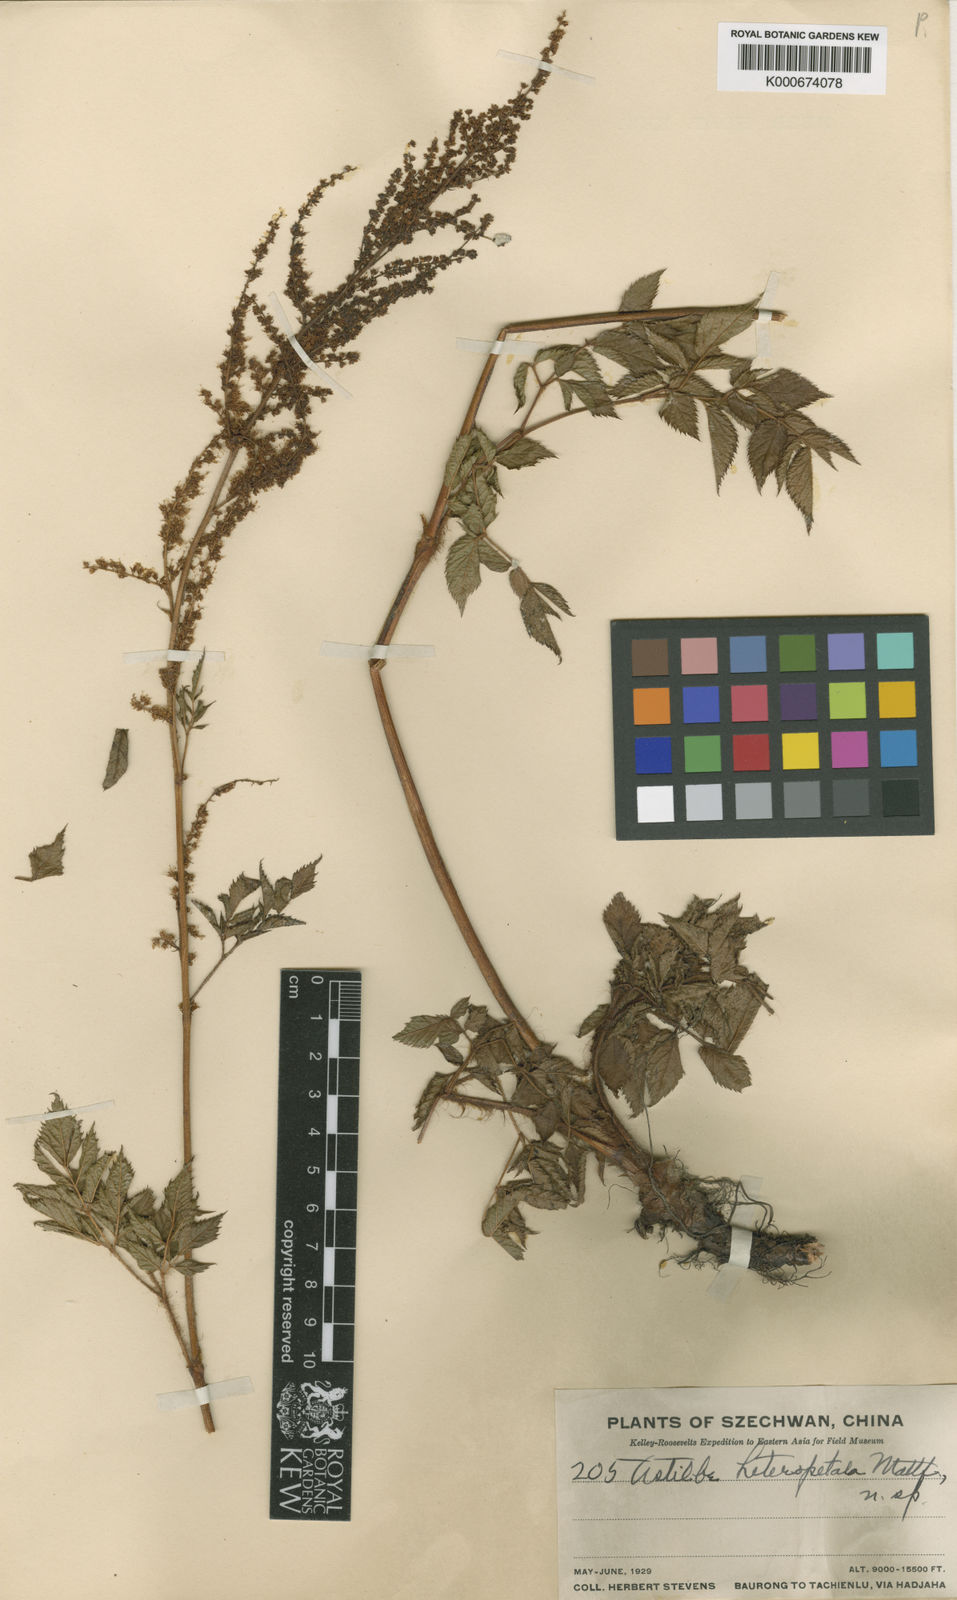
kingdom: Plantae
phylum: Tracheophyta
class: Magnoliopsida
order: Saxifragales
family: Saxifragaceae
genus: Astilbe
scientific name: Astilbe rivularis
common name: Tall false-buck's-beard
